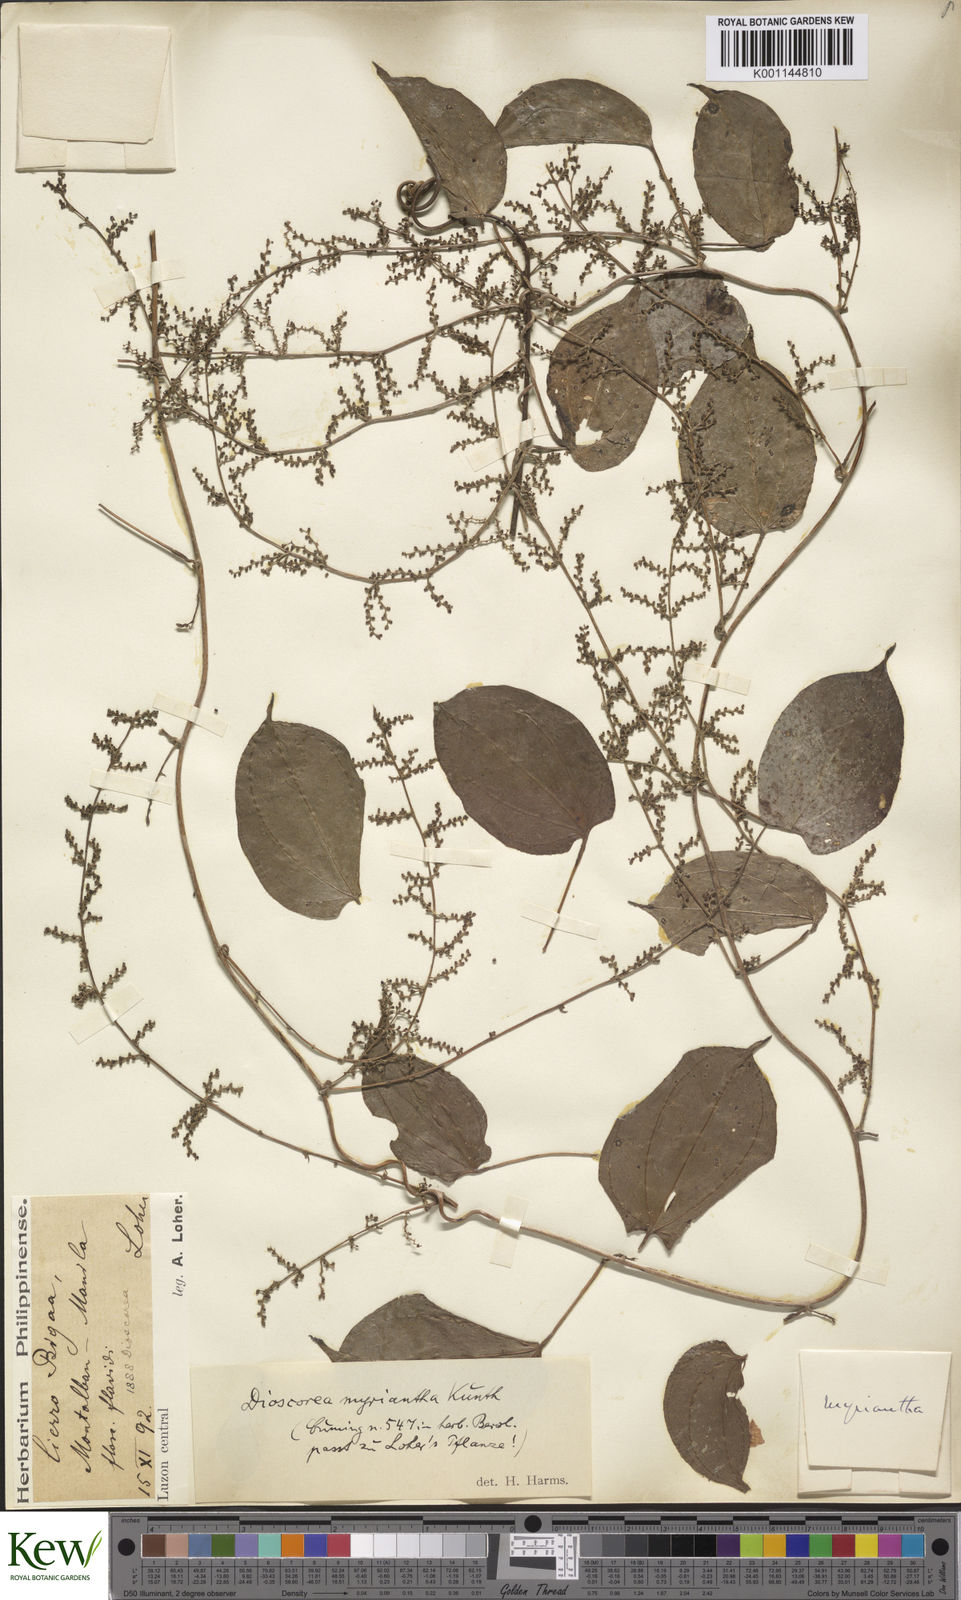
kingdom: Plantae
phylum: Tracheophyta
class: Liliopsida
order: Dioscoreales
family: Dioscoreaceae
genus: Dioscorea
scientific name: Dioscorea filiformis
